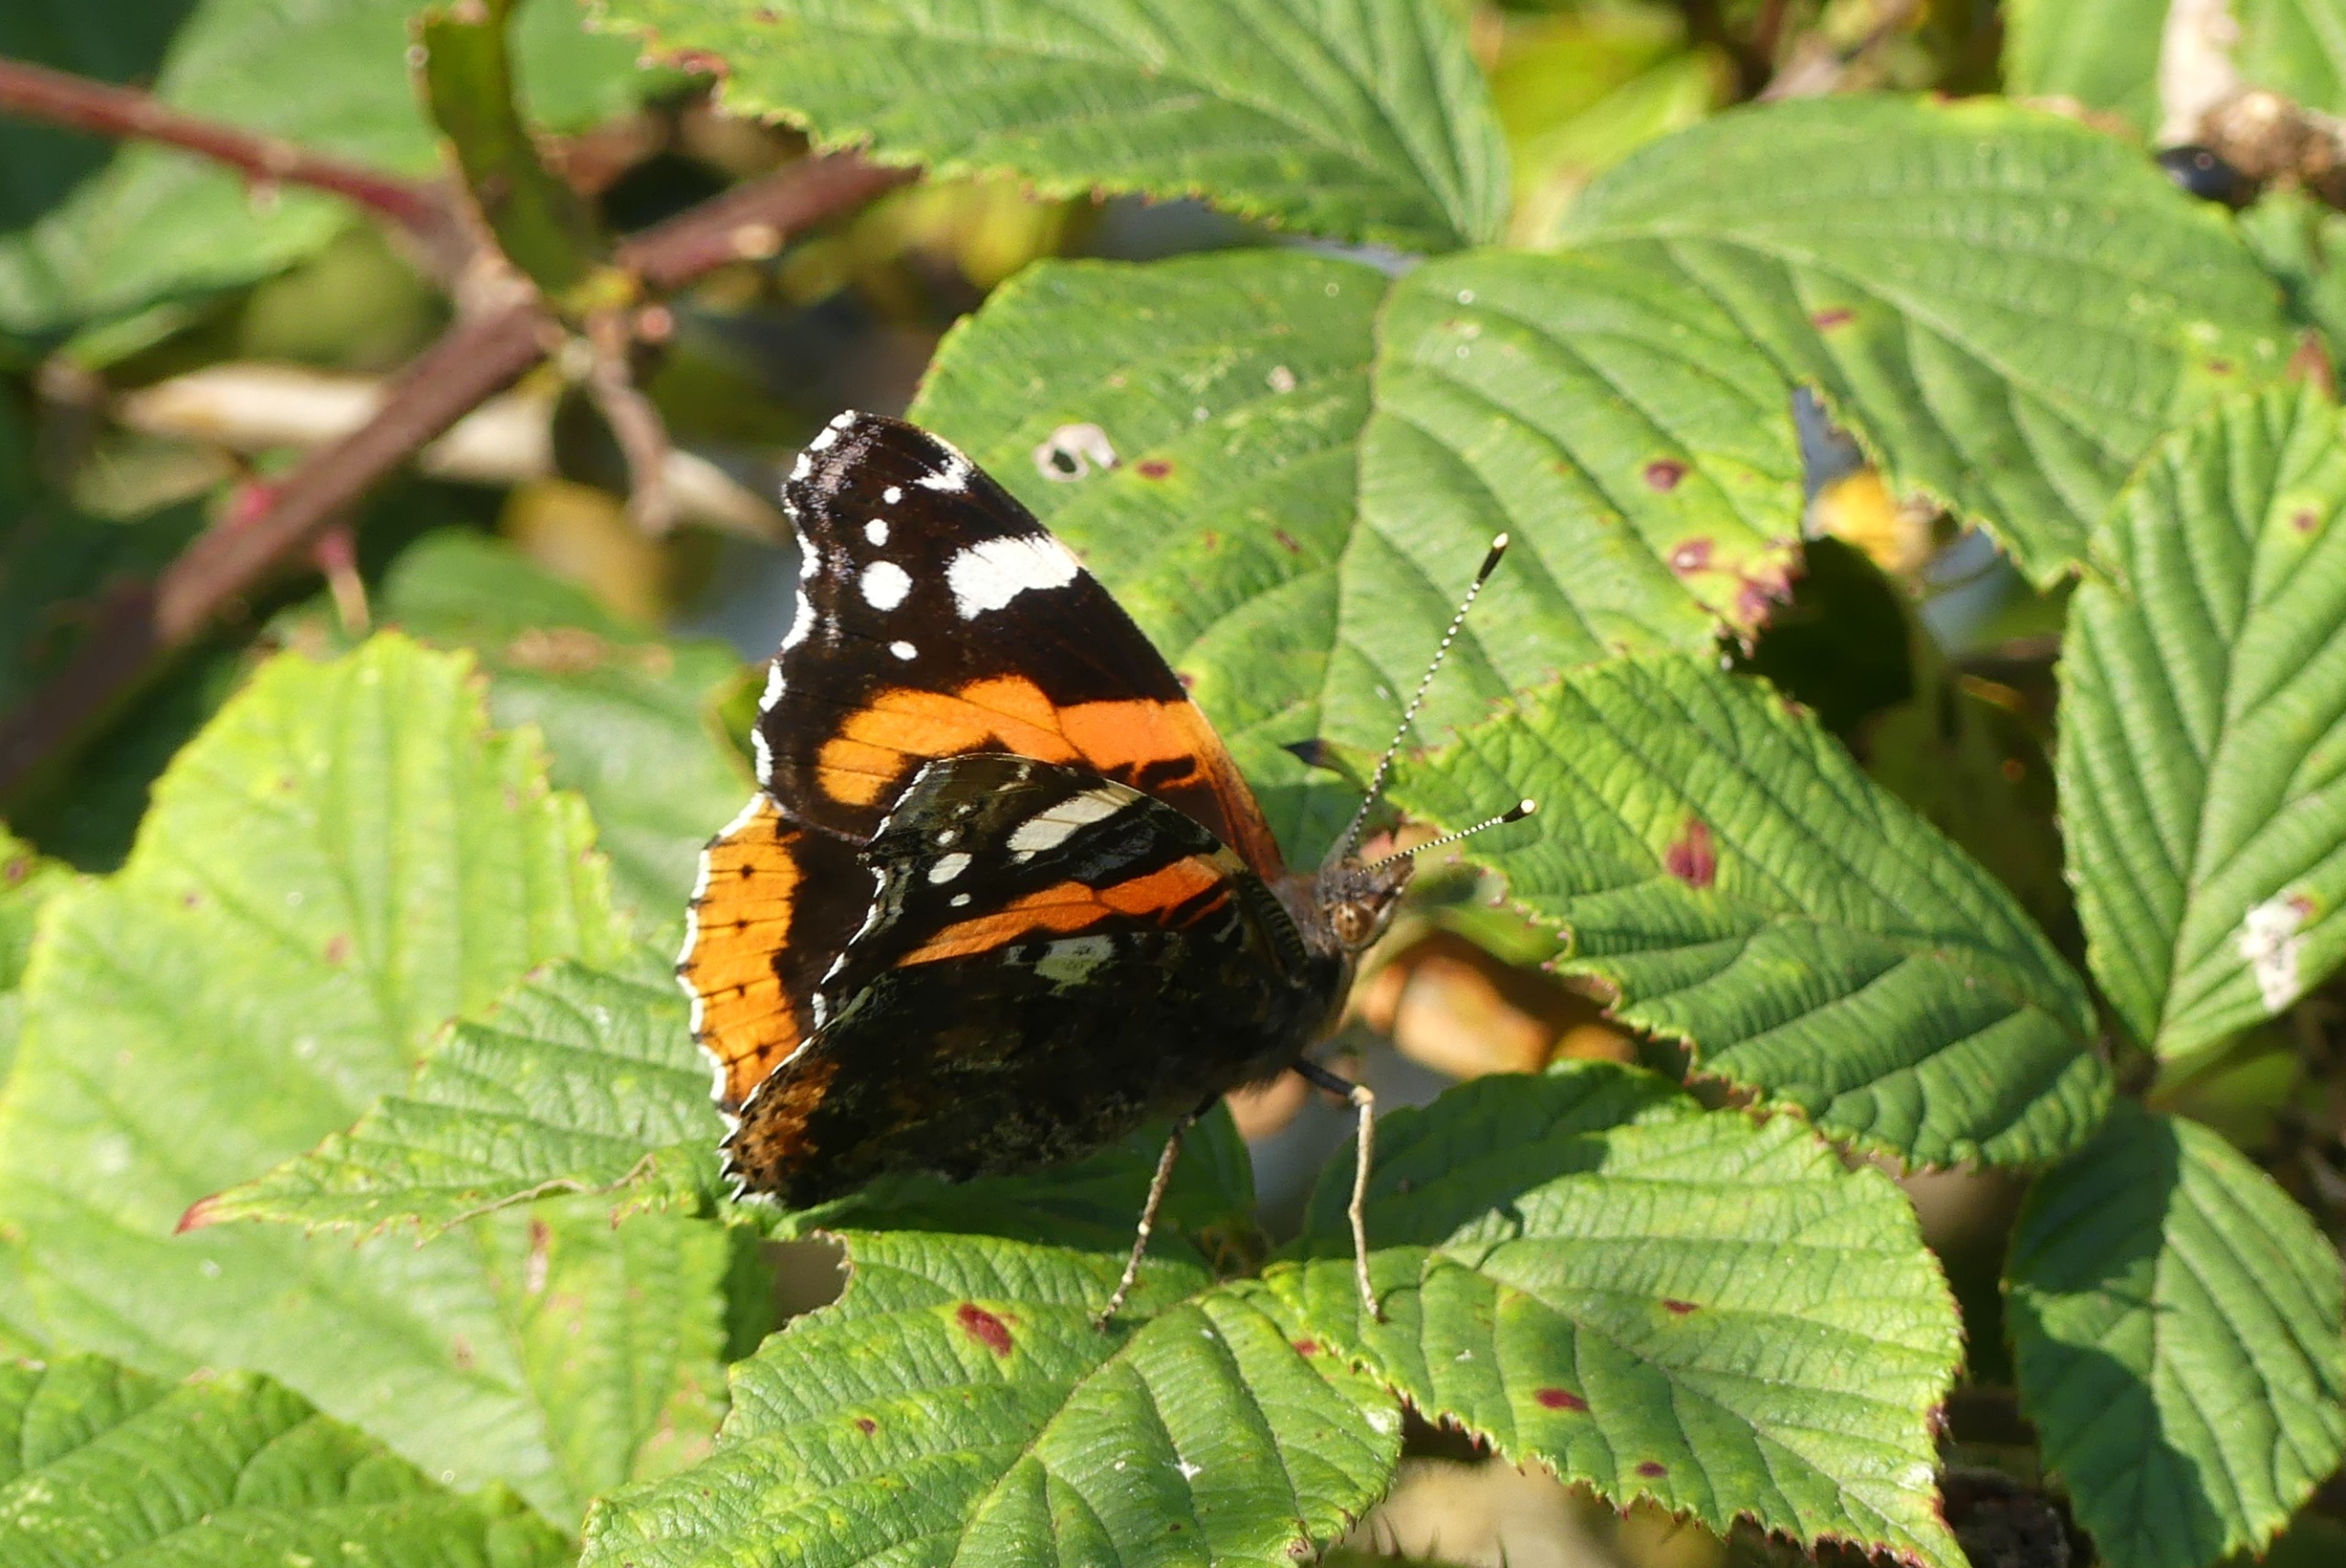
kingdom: Animalia
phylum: Arthropoda
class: Insecta
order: Lepidoptera
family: Nymphalidae
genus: Vanessa
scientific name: Vanessa atalanta
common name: Admiral
